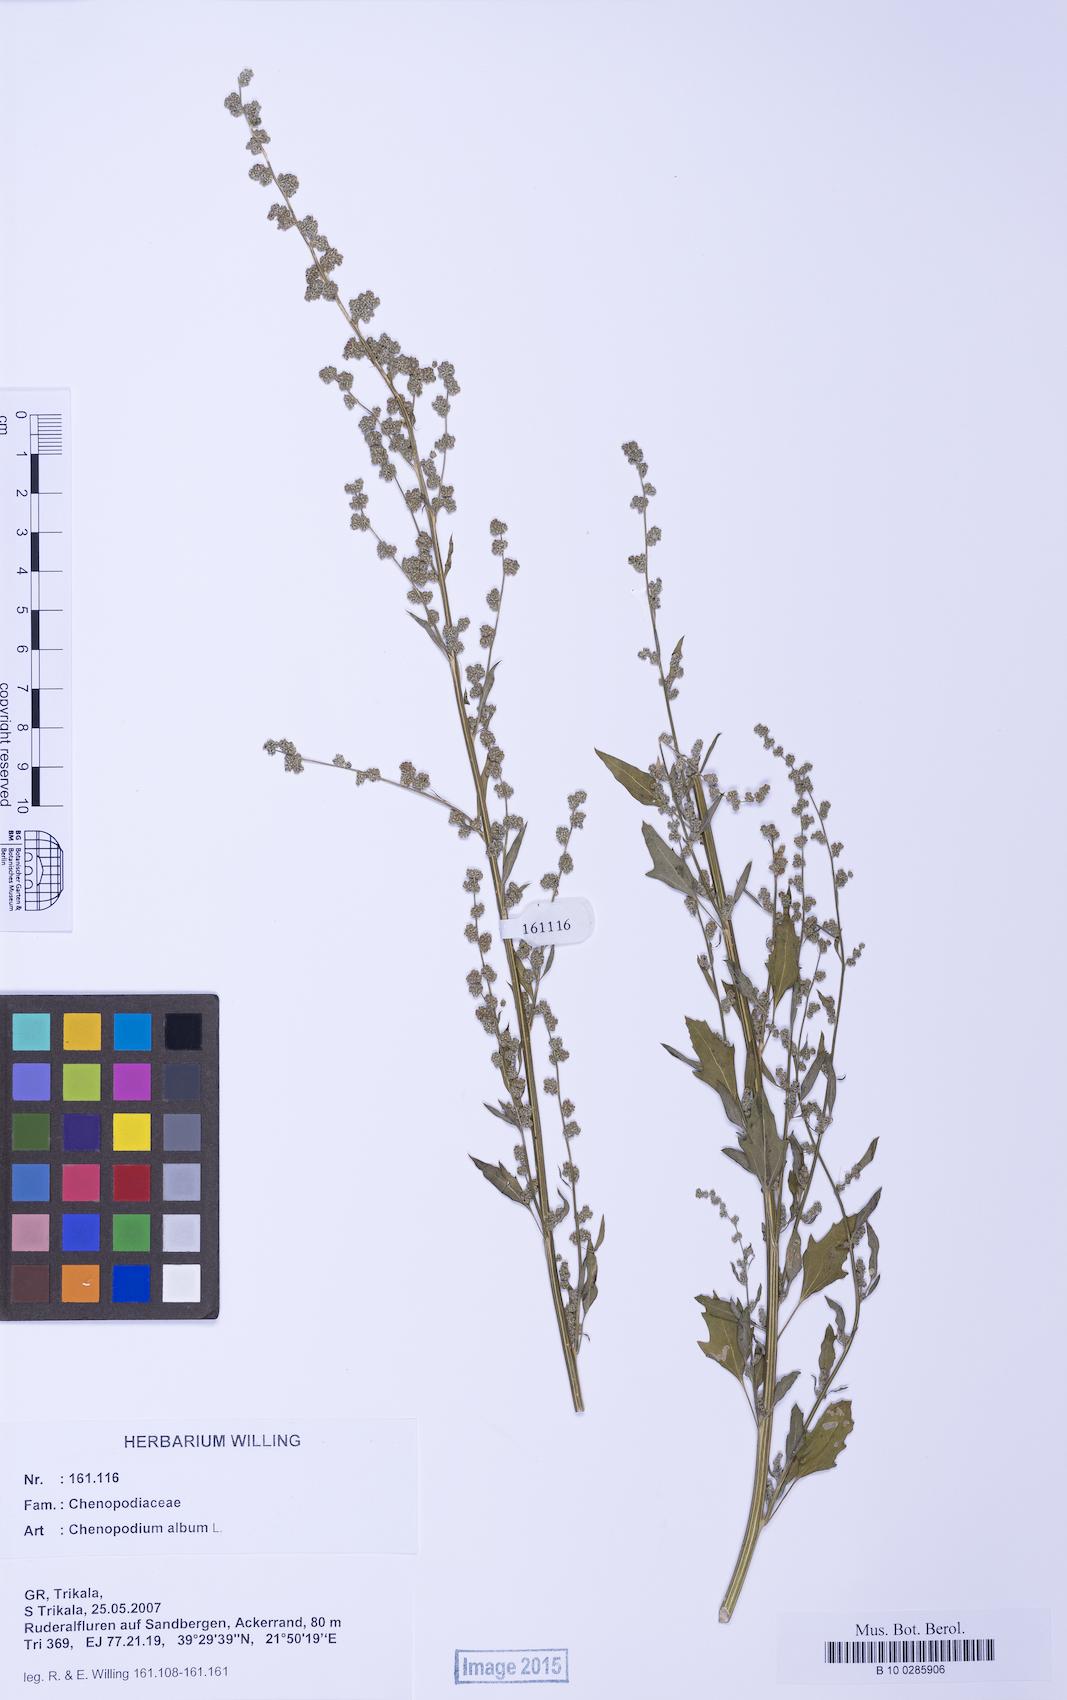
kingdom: Plantae
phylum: Tracheophyta
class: Magnoliopsida
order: Caryophyllales
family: Amaranthaceae
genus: Chenopodium
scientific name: Chenopodium album
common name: Fat-hen
